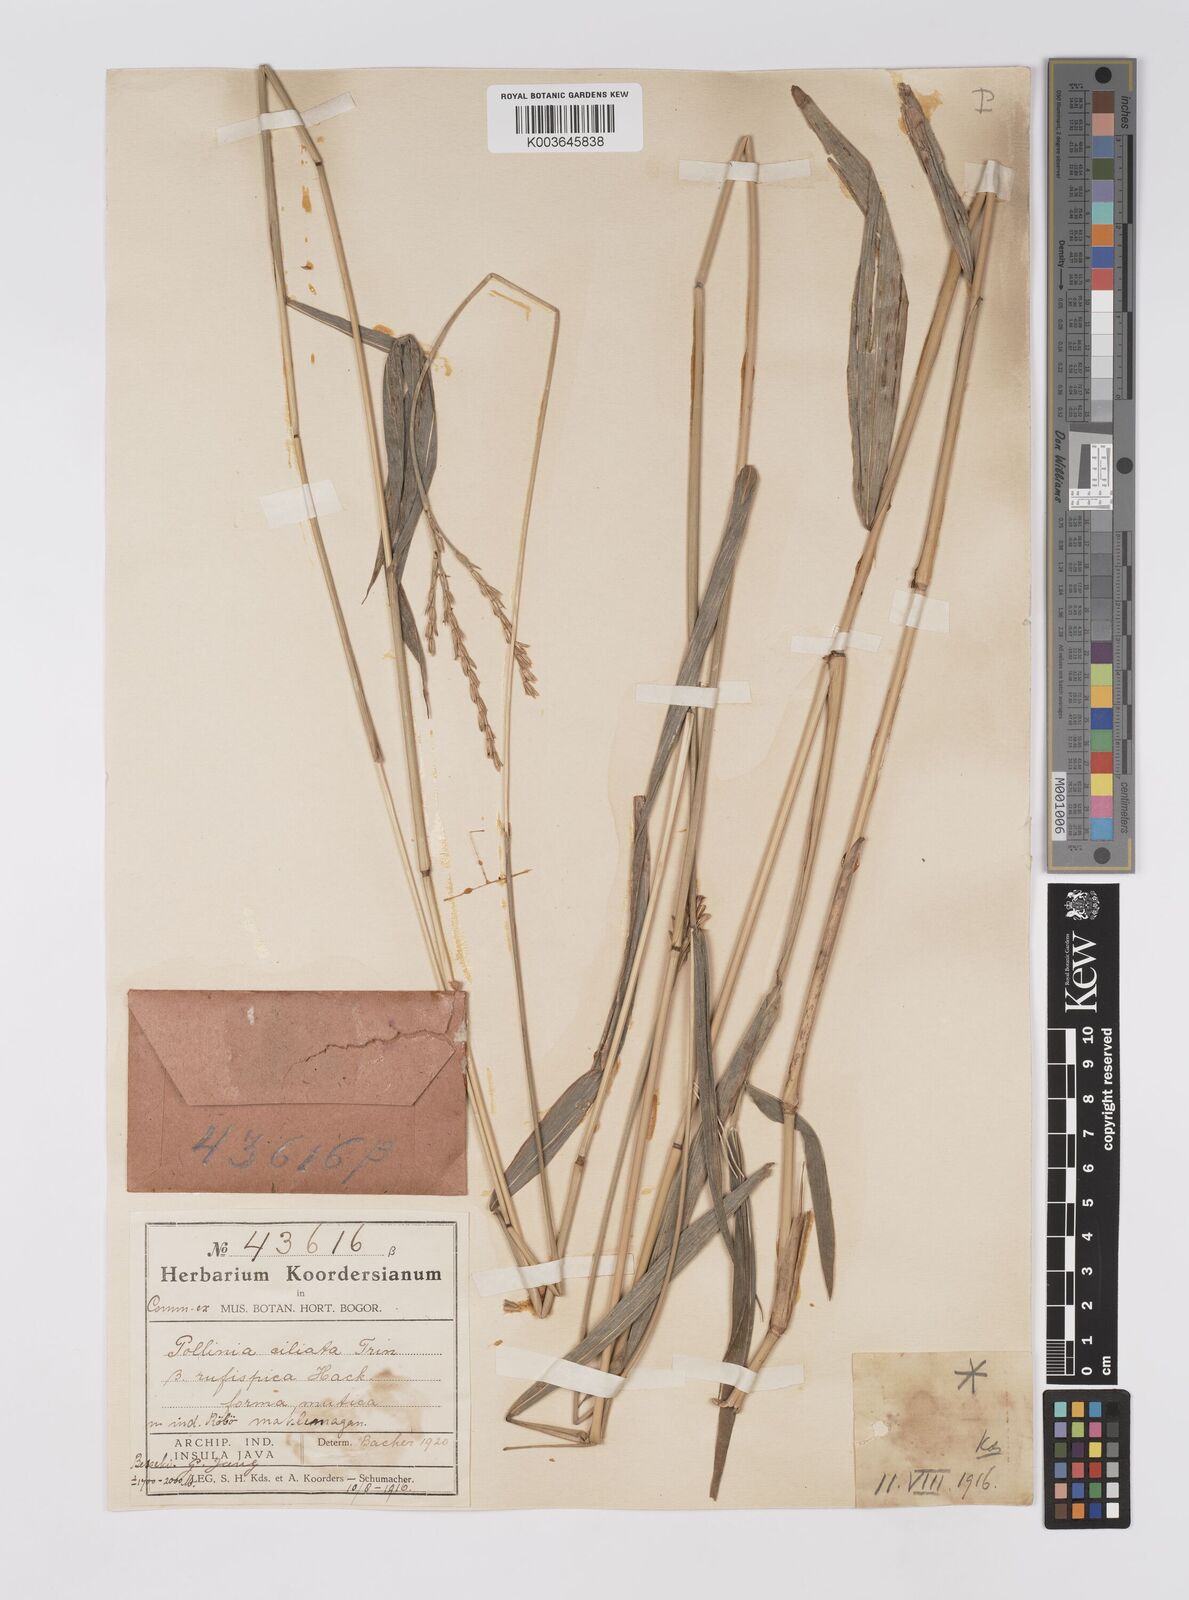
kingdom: Plantae
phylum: Tracheophyta
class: Liliopsida
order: Poales
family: Poaceae
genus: Microstegium
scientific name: Microstegium rufispicum
